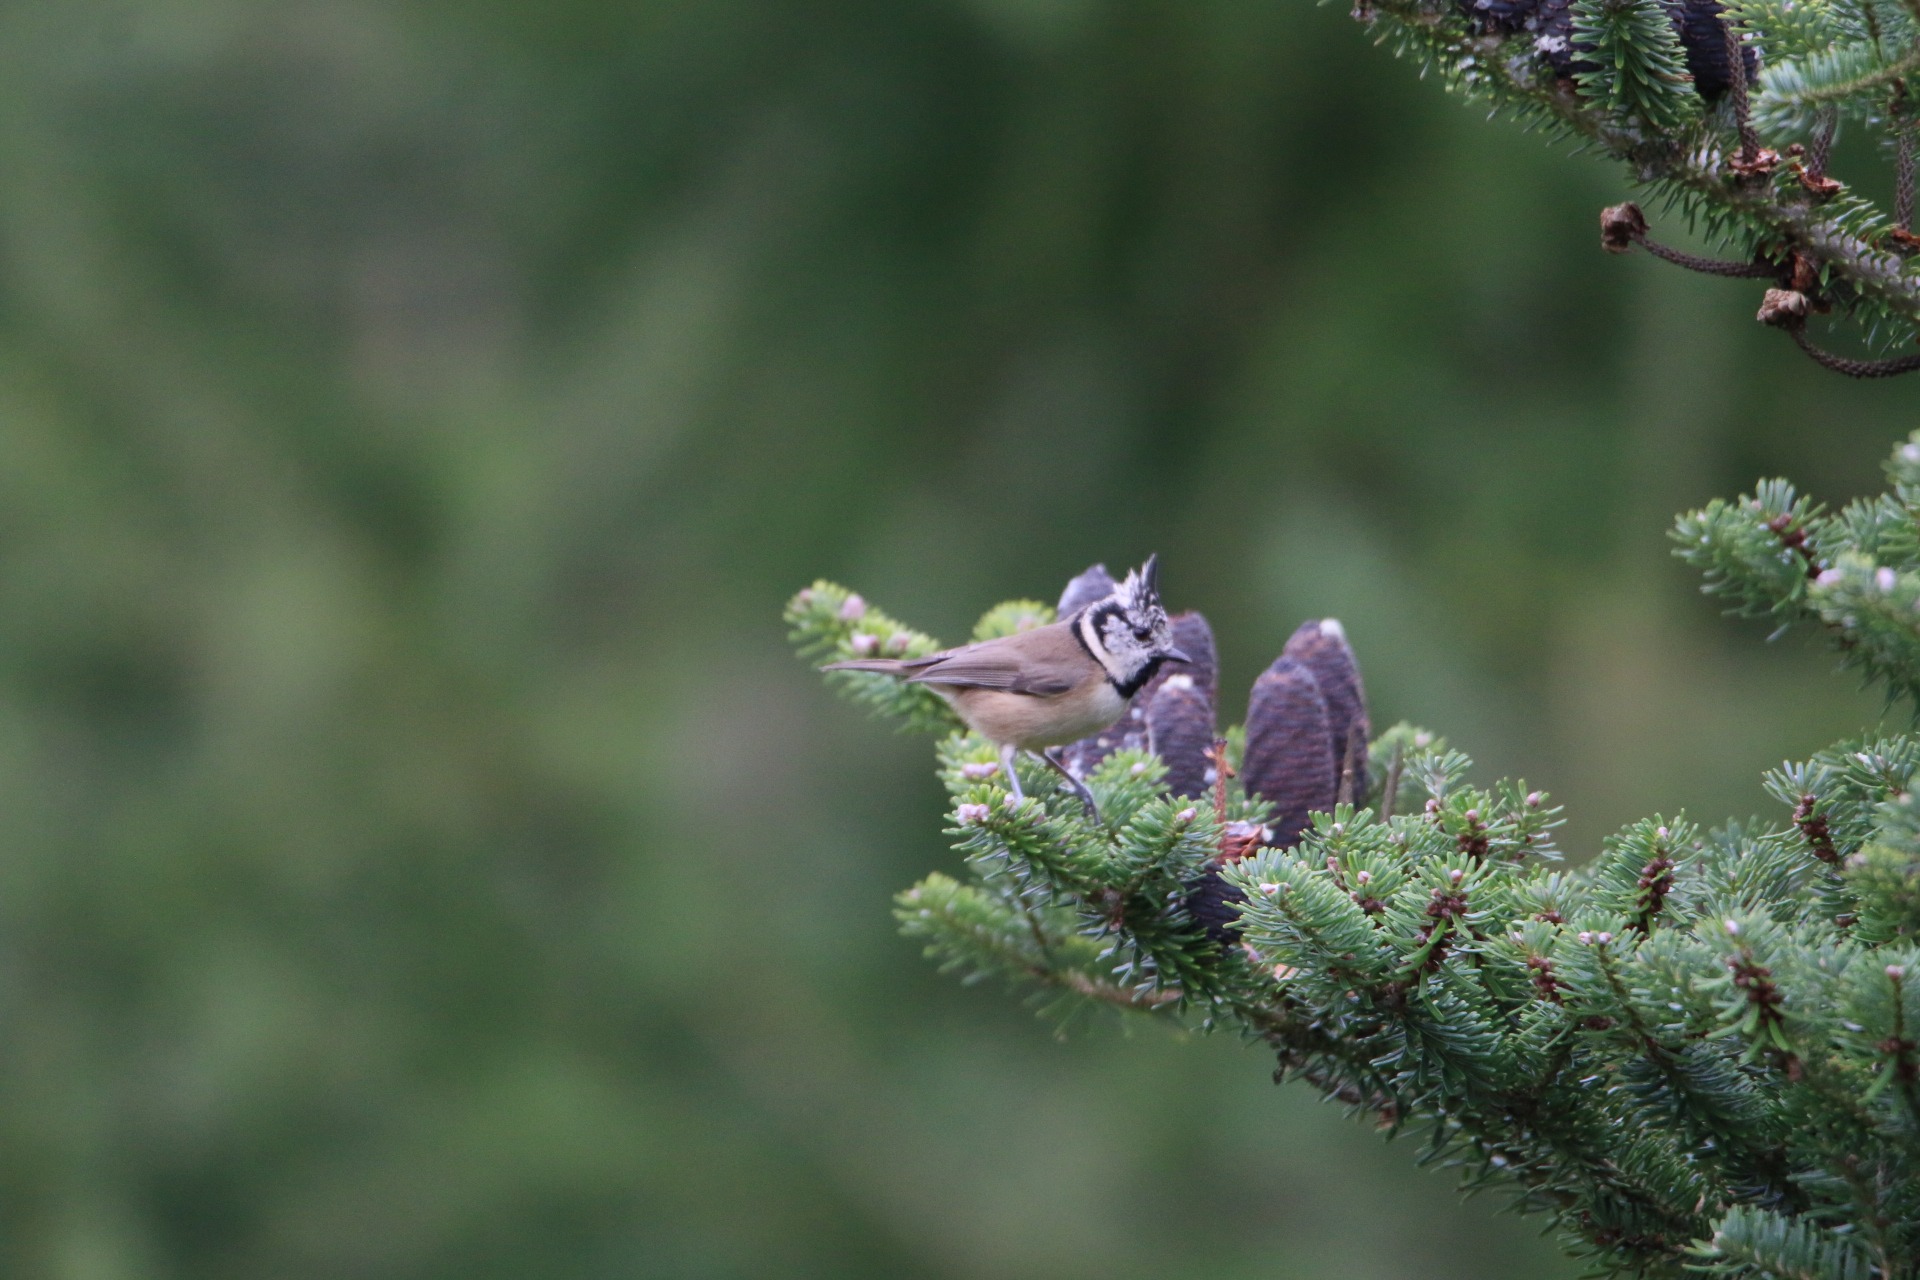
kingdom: Animalia
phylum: Chordata
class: Aves
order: Passeriformes
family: Paridae
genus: Lophophanes
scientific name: Lophophanes cristatus
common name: Topmejse
